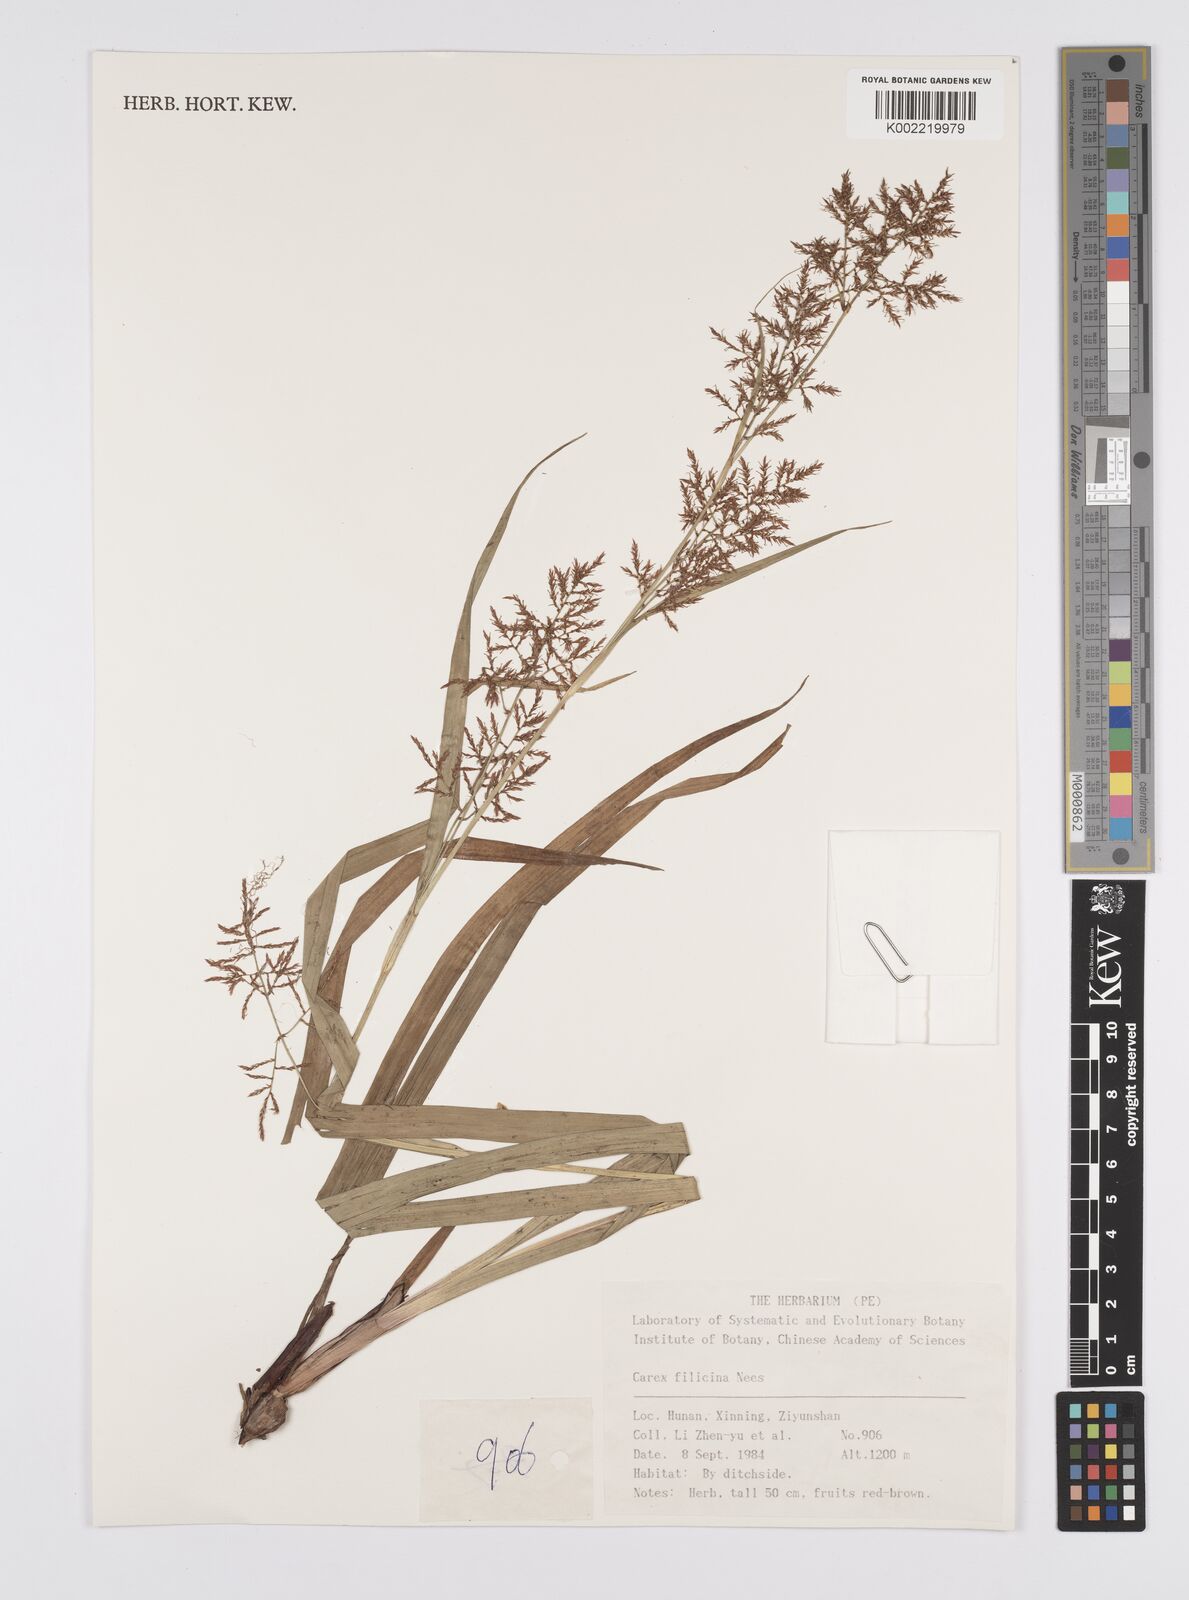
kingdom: Plantae
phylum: Tracheophyta
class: Liliopsida
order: Poales
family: Cyperaceae
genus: Carex
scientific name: Carex filicina
